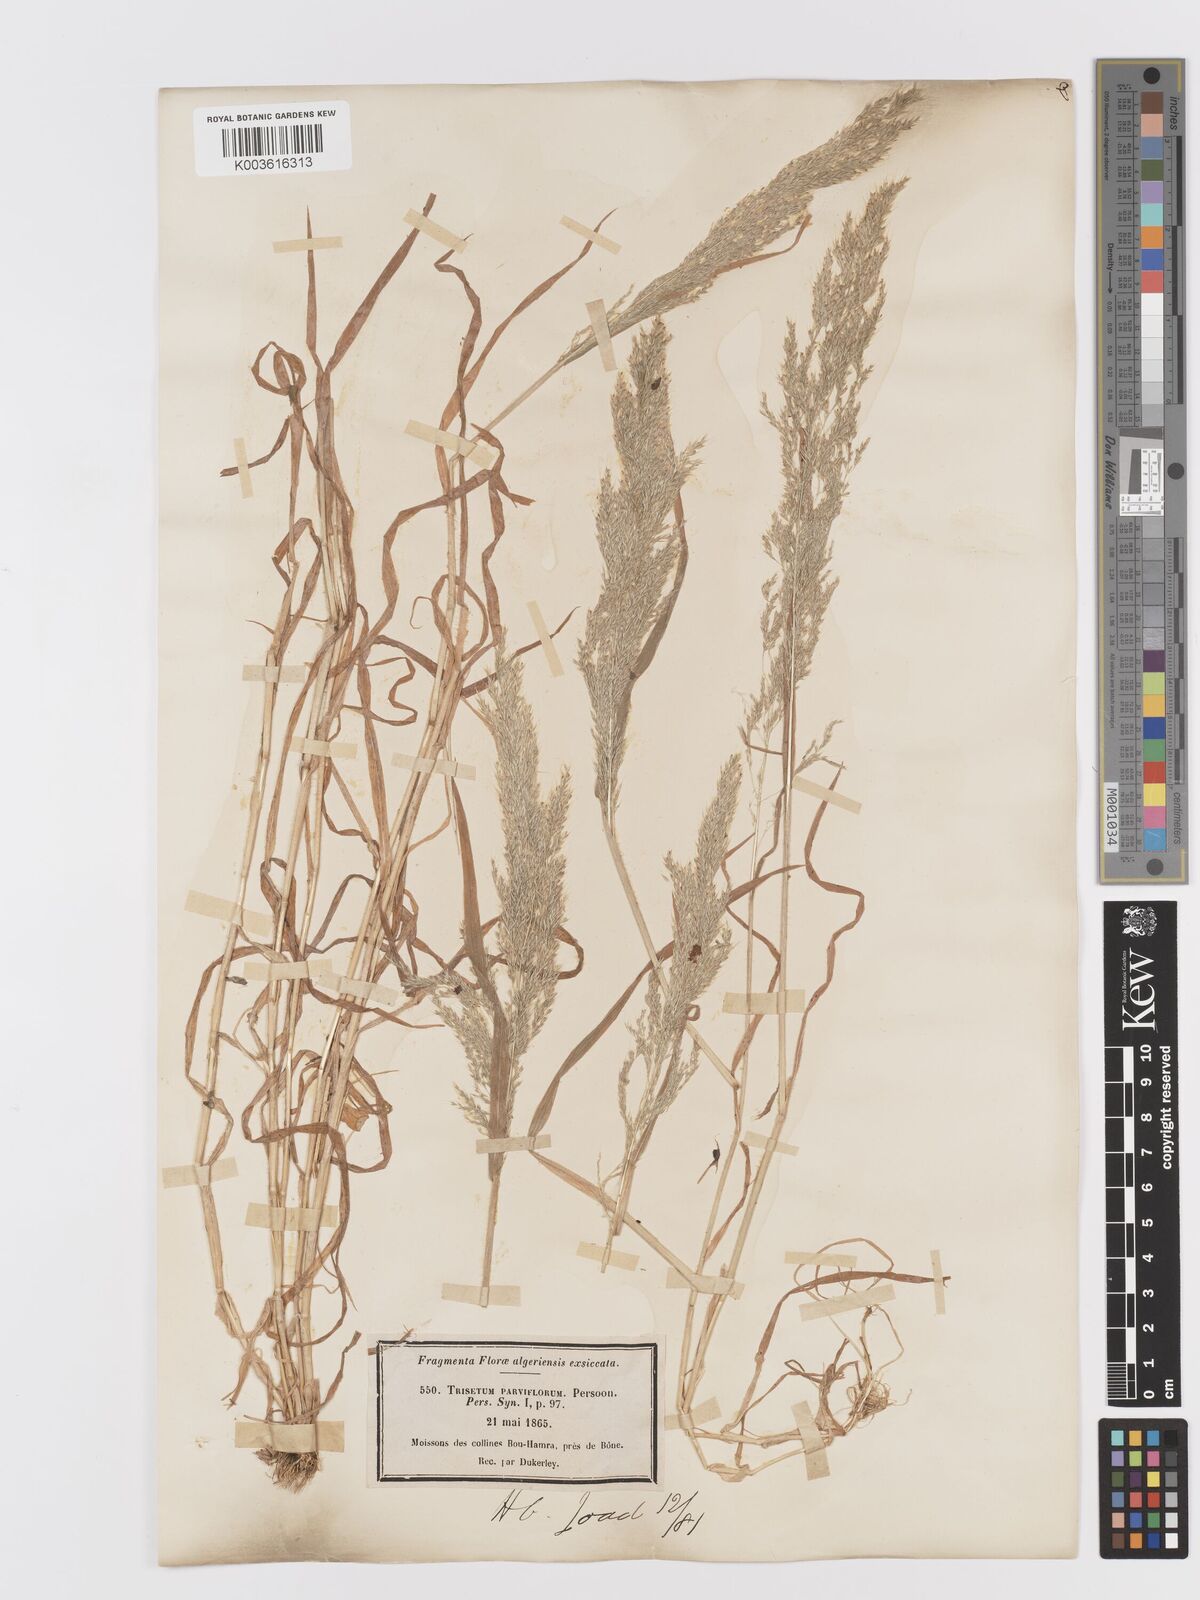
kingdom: Plantae
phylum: Tracheophyta
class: Liliopsida
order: Poales
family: Poaceae
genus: Trisetaria
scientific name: Trisetaria parviflora
